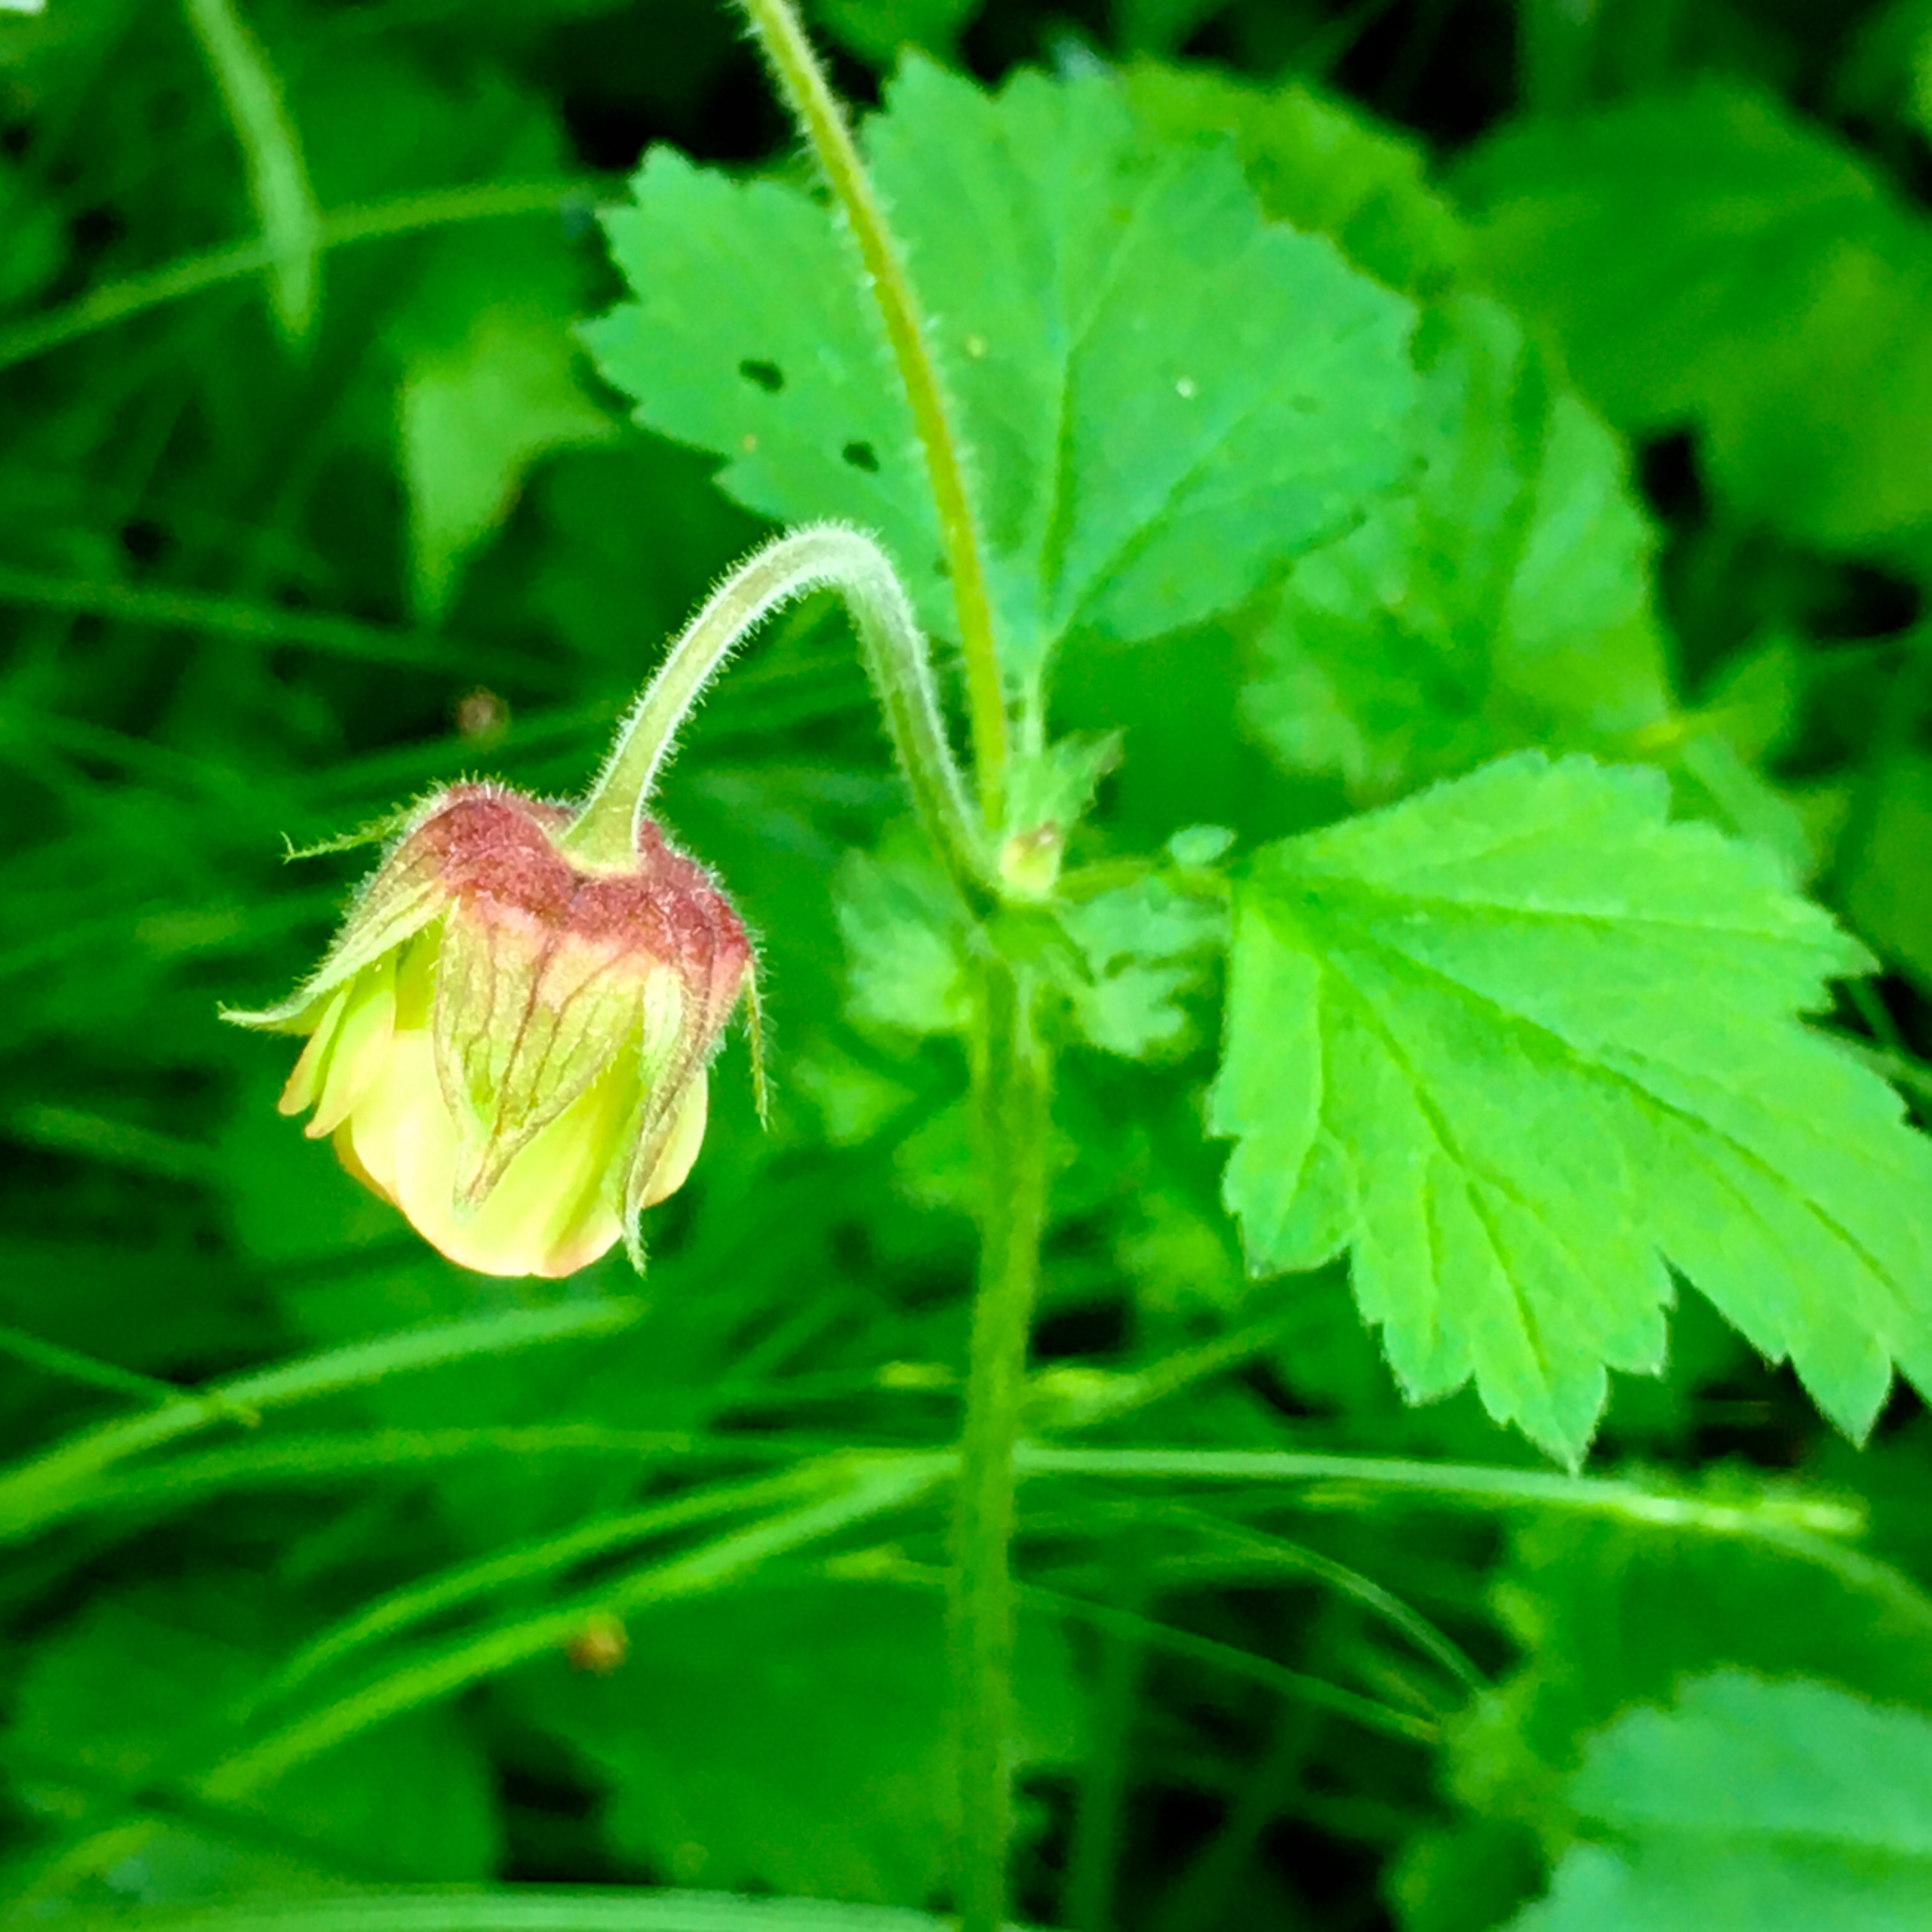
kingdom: Plantae
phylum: Tracheophyta
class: Magnoliopsida
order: Rosales
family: Rosaceae
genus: Geum
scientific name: Geum rivale
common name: Eng-nellikerod
